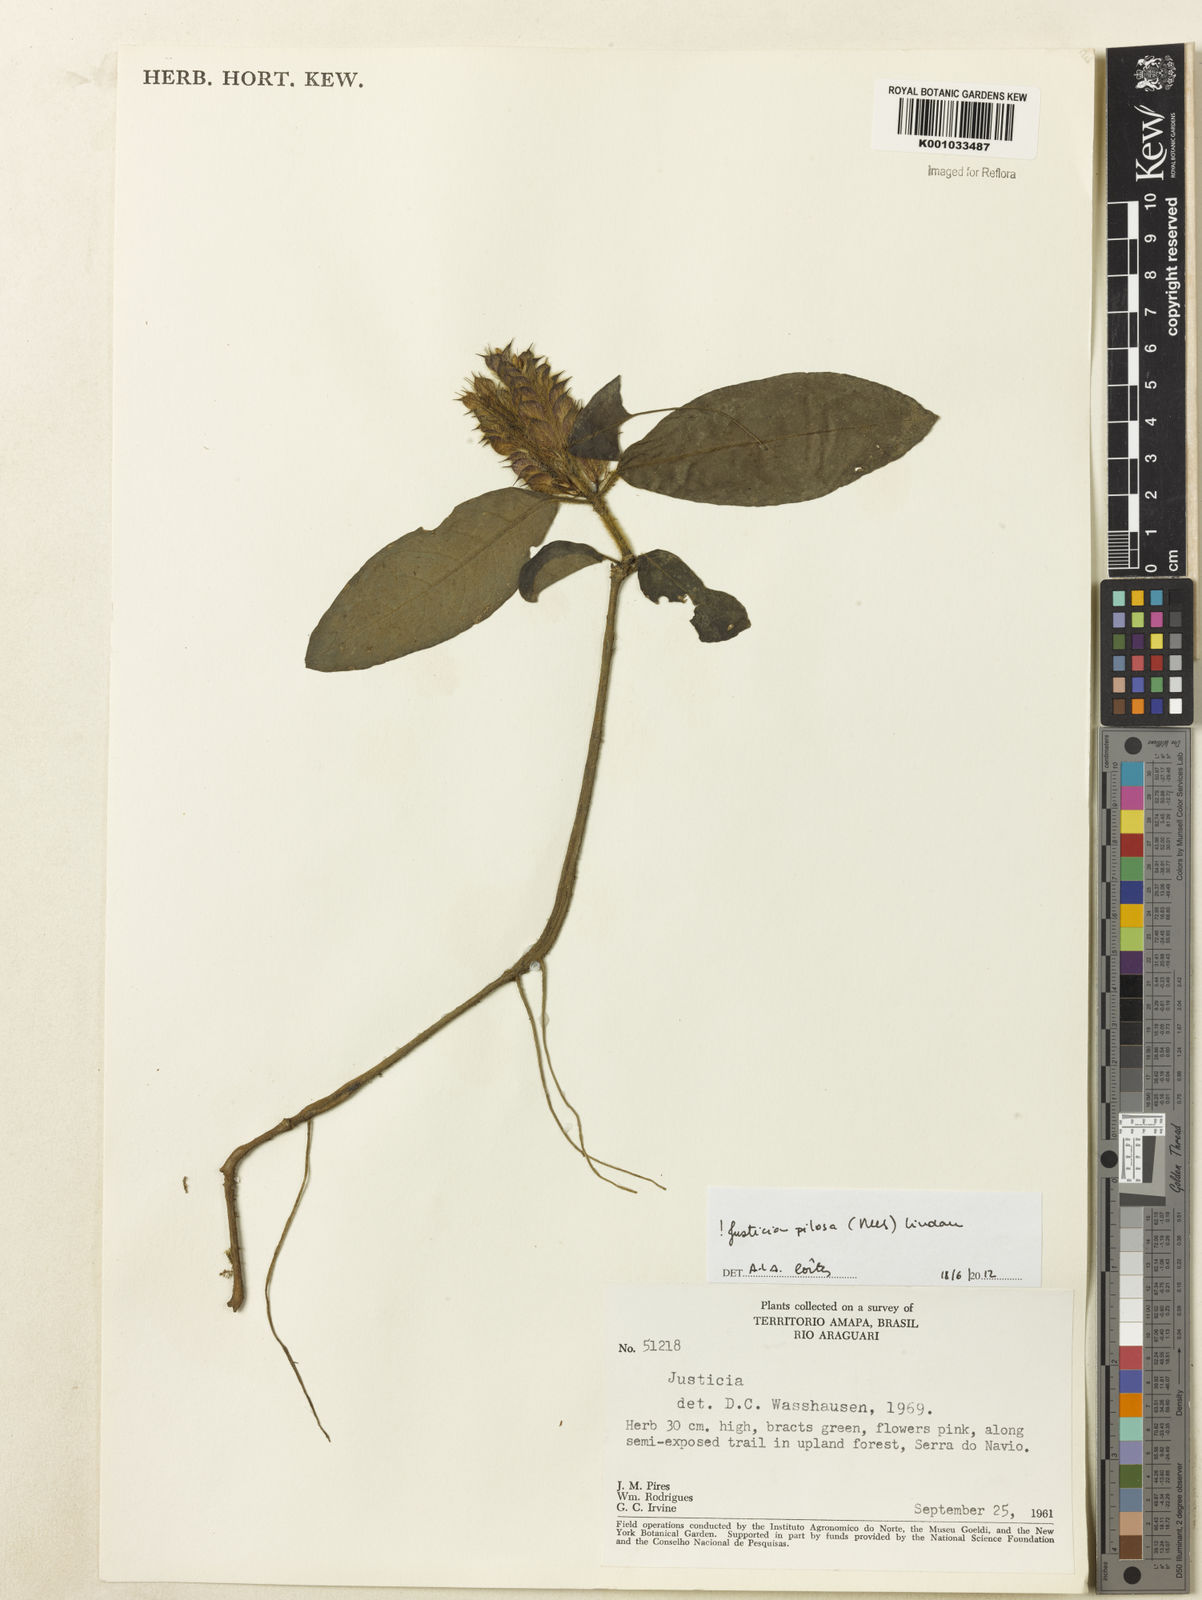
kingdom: Plantae
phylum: Tracheophyta
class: Magnoliopsida
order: Lamiales
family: Acanthaceae
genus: Justicia
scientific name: Justicia pilosa
